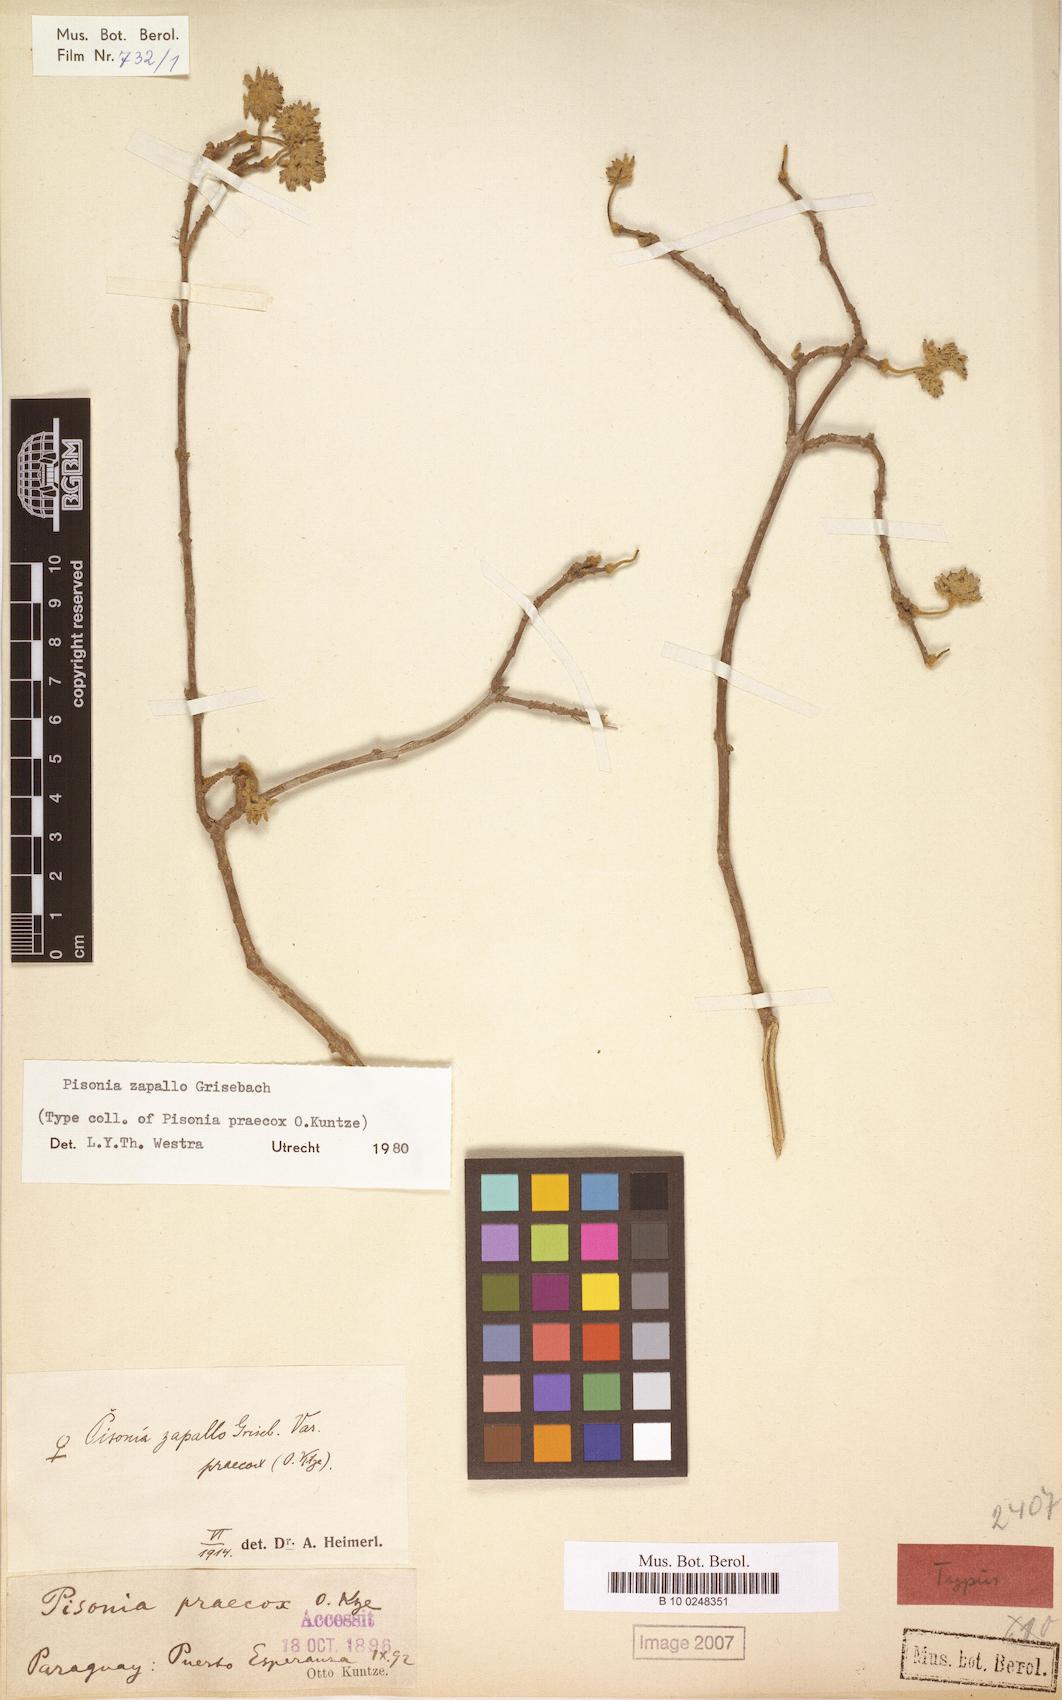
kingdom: Plantae
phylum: Tracheophyta
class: Magnoliopsida
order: Caryophyllales
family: Nyctaginaceae
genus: Pisonia
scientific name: Pisonia zapallo
